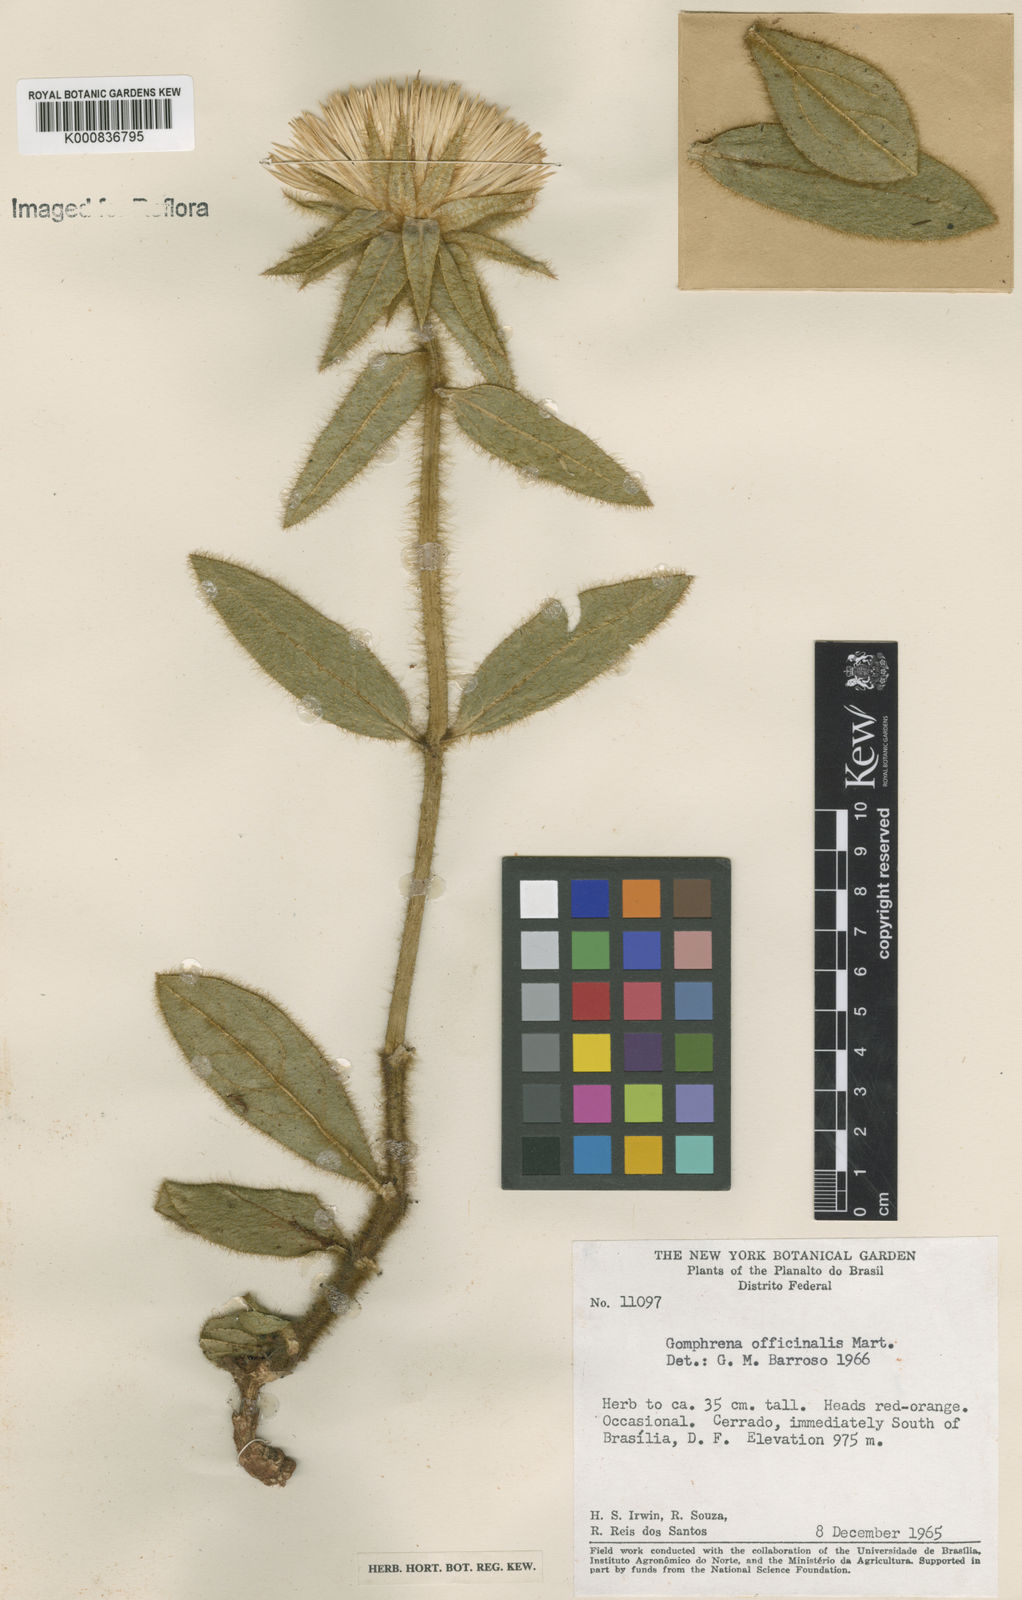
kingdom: Plantae
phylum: Tracheophyta
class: Magnoliopsida
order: Caryophyllales
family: Amaranthaceae
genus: Gomphrena
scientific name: Gomphrena arborescens
